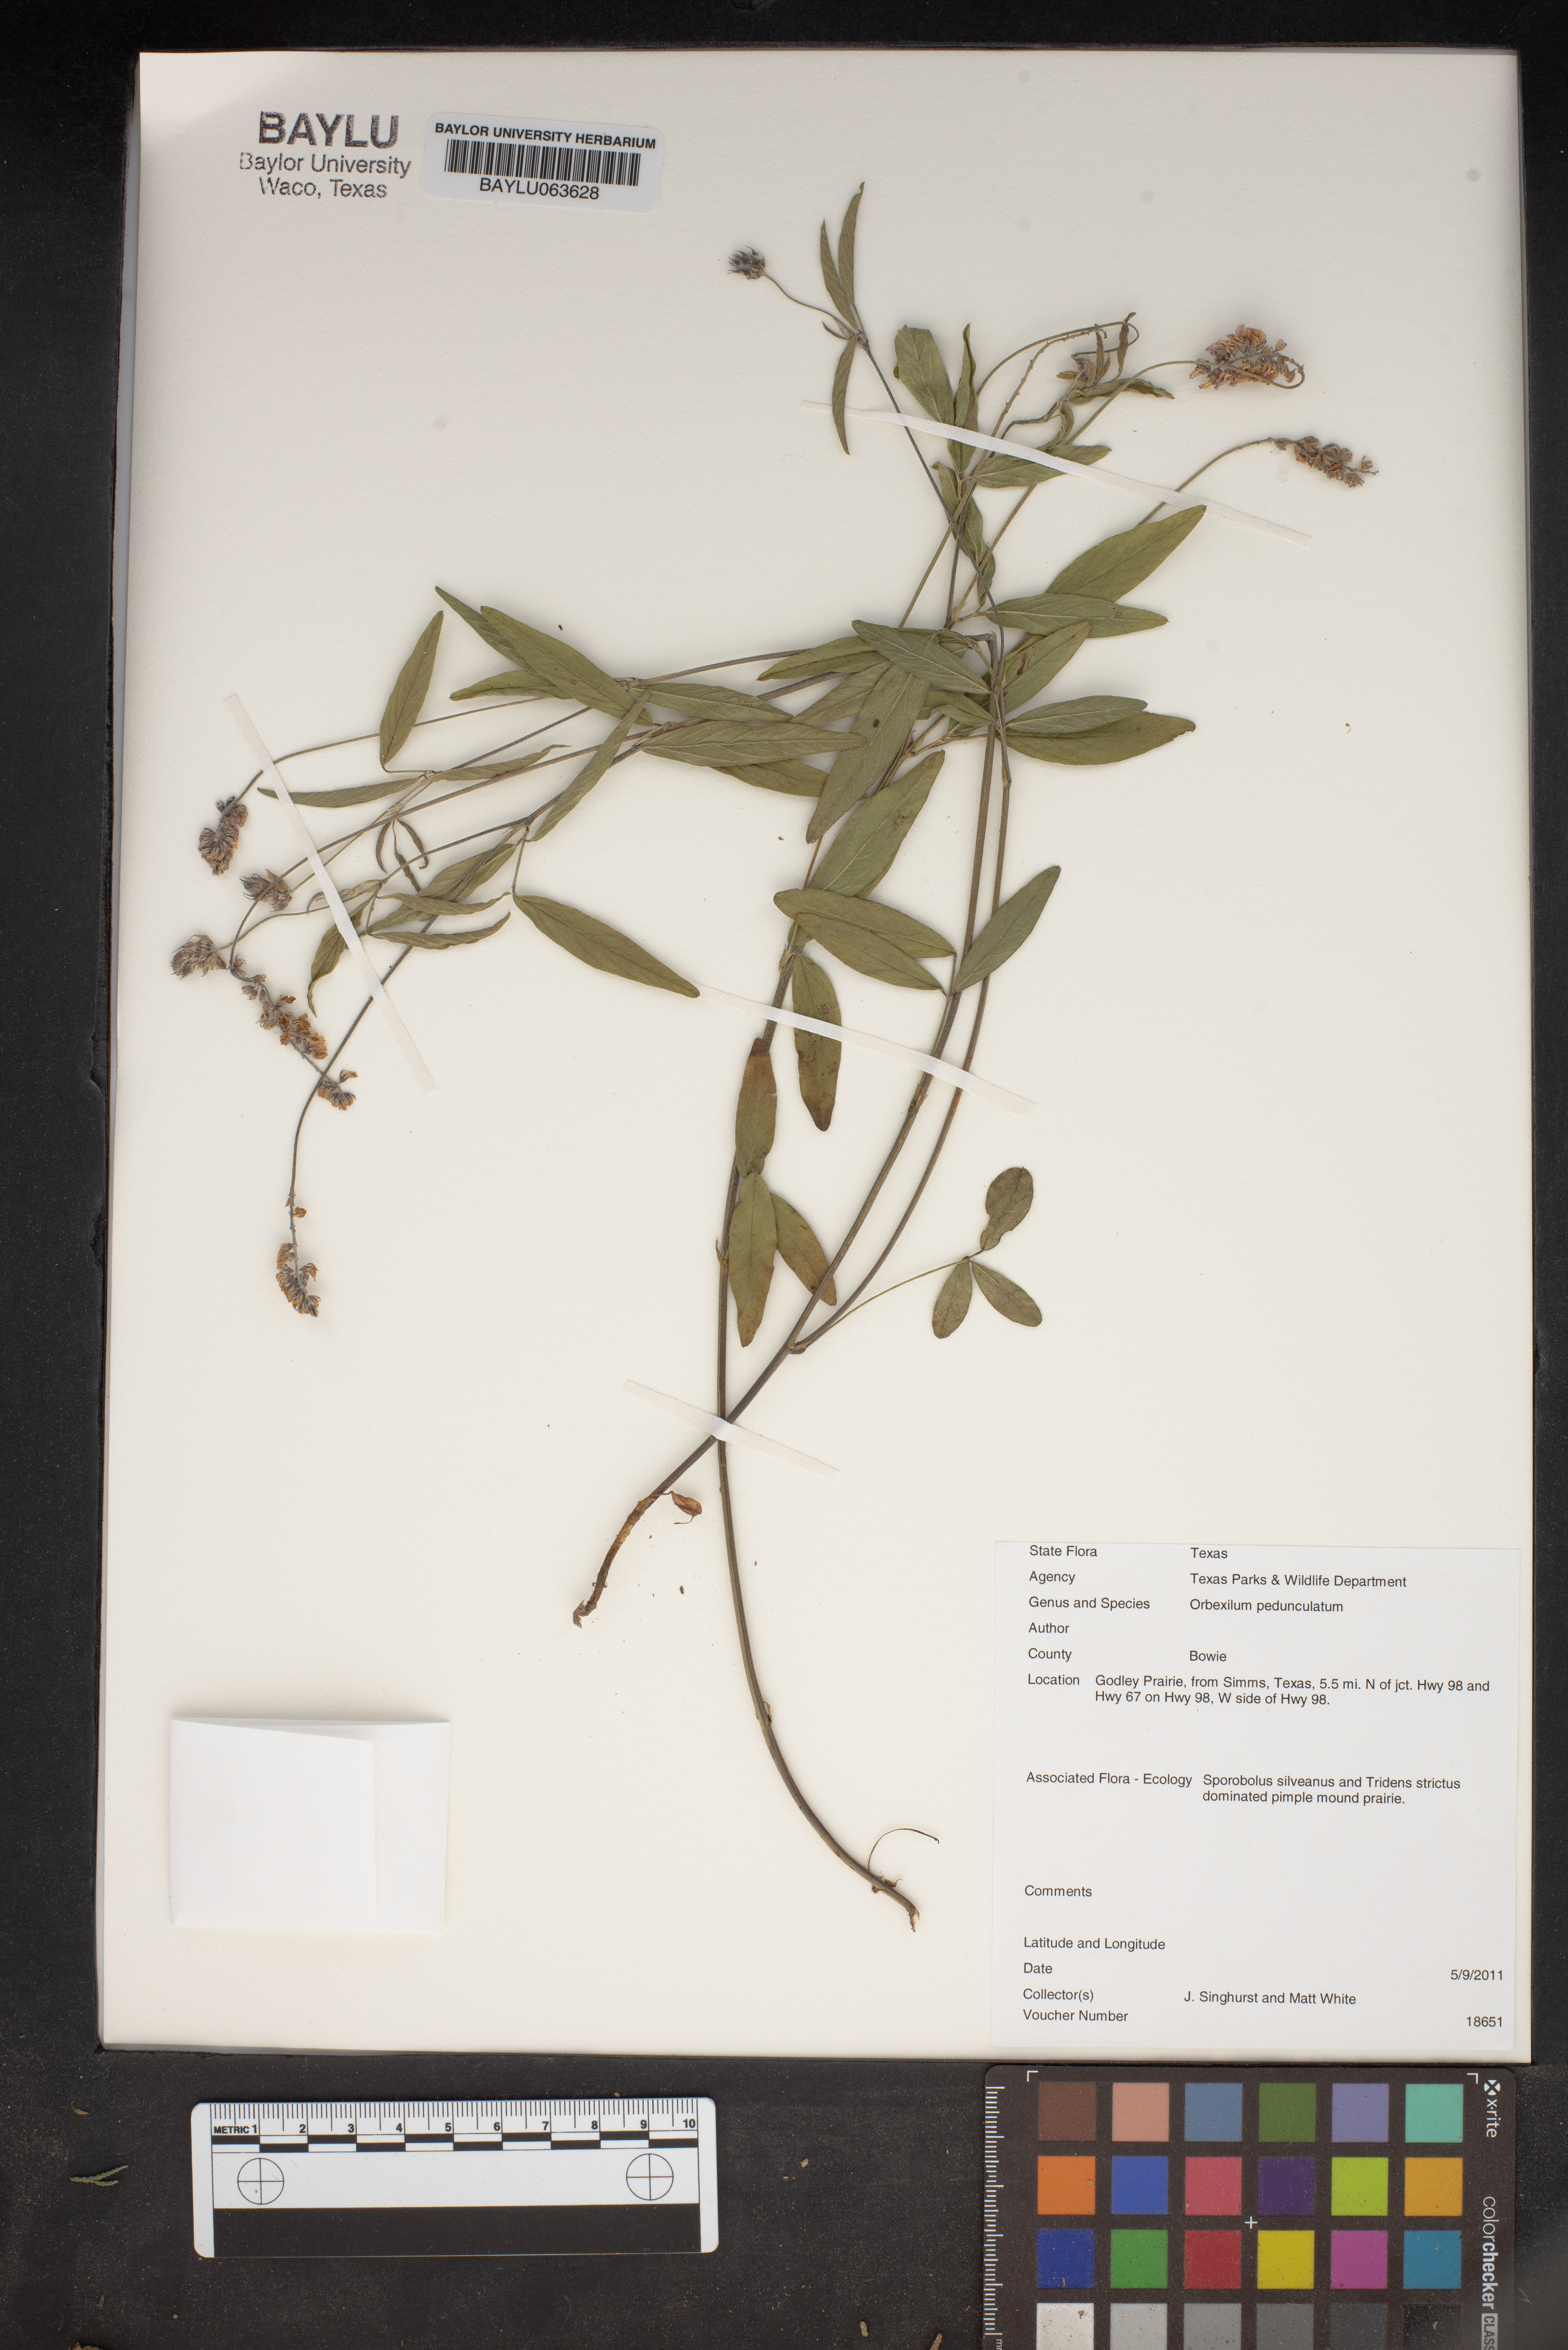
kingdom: Plantae
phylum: Tracheophyta
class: Magnoliopsida
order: Fabales
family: Fabaceae
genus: Orbexilum
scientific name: Orbexilum pedunculatum
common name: Sampson's snakeroot
